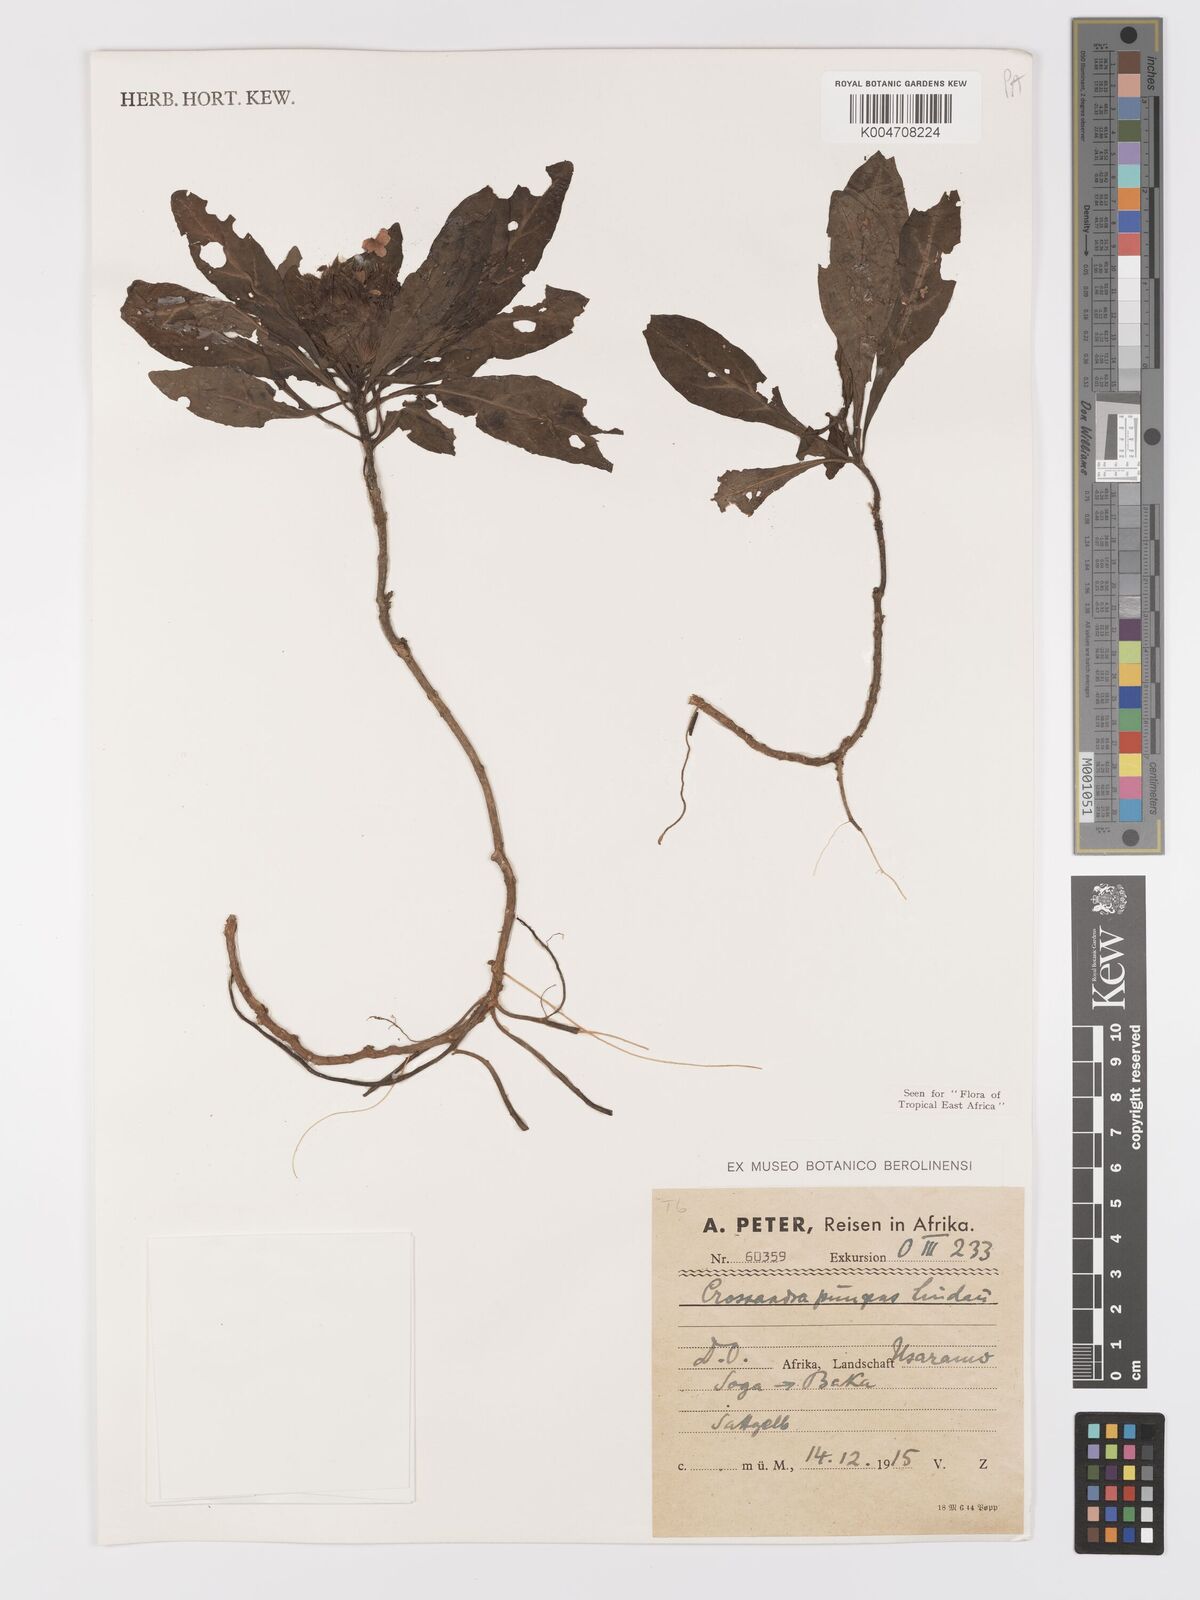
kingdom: Plantae
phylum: Tracheophyta
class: Magnoliopsida
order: Lamiales
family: Acanthaceae
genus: Crossandra
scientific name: Crossandra pungens
